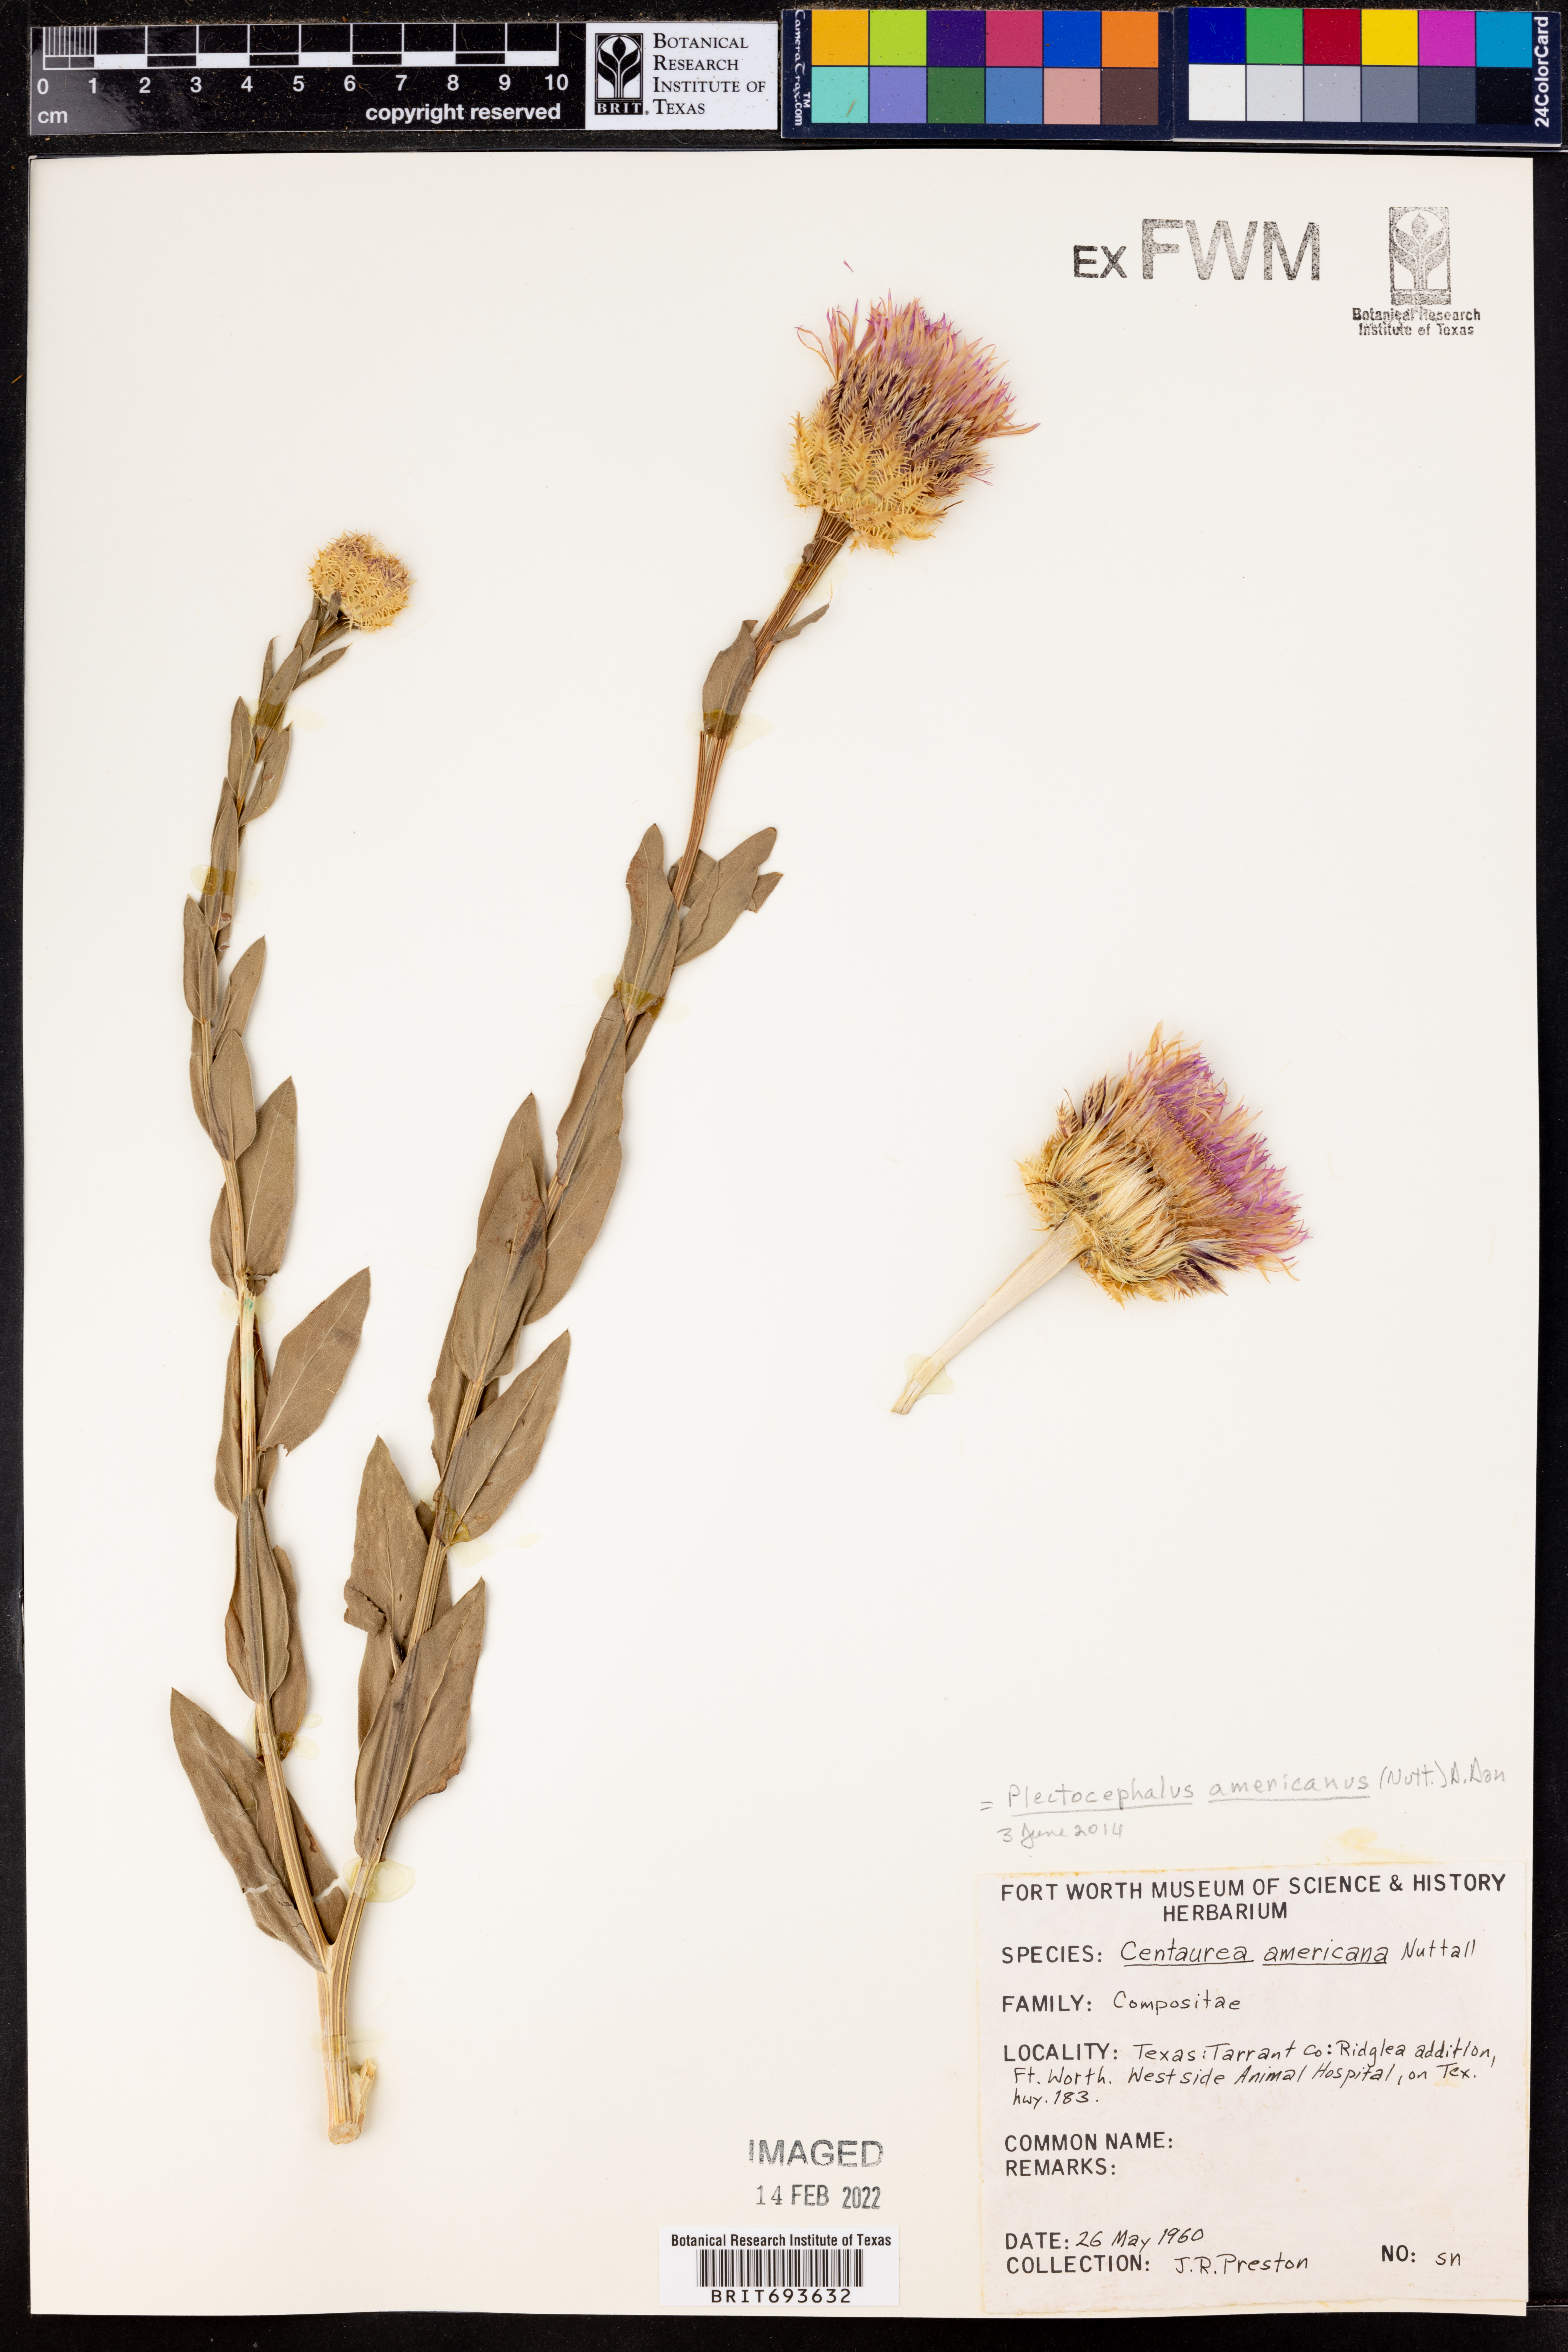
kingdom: Plantae
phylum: Tracheophyta
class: Magnoliopsida
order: Asterales
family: Asteraceae
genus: Plectocephalus
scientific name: Plectocephalus americanus
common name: American basket-flower
